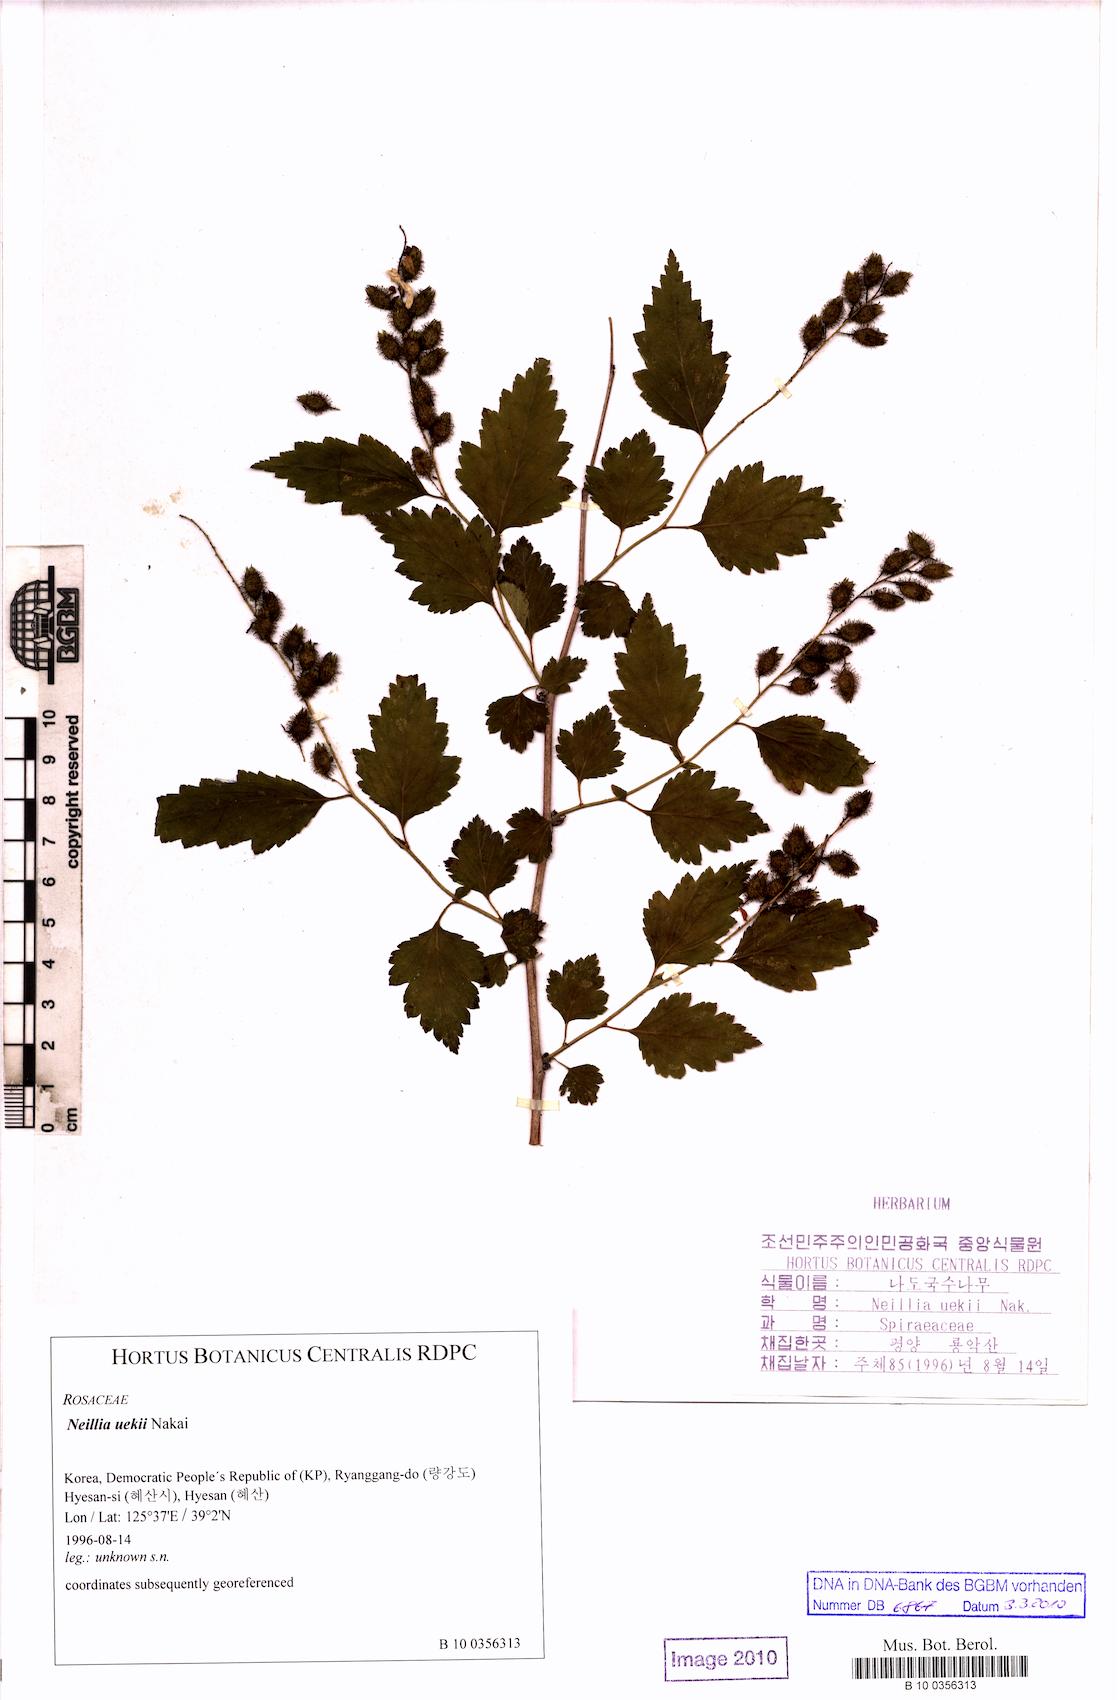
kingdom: Plantae
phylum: Tracheophyta
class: Magnoliopsida
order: Rosales
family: Rosaceae
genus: Neillia
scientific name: Neillia uekii
